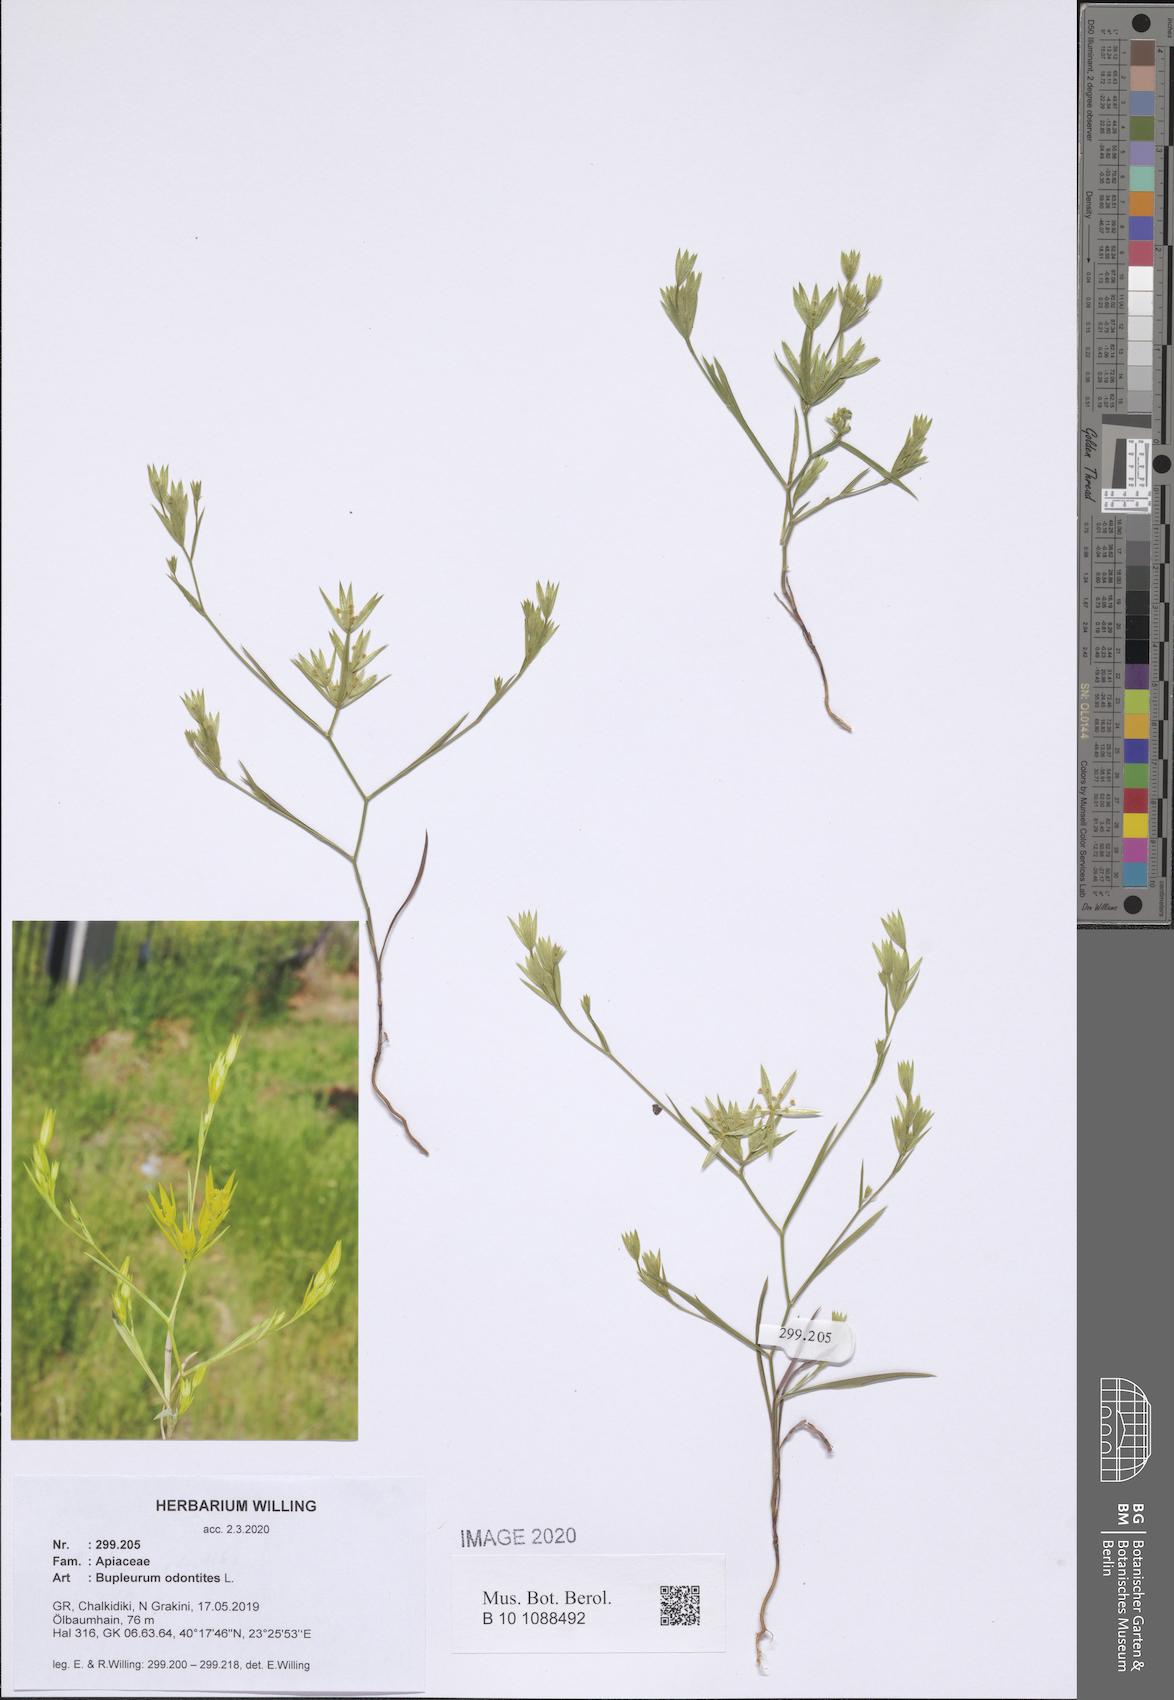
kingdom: Plantae
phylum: Tracheophyta
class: Magnoliopsida
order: Apiales
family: Apiaceae
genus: Bupleurum
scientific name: Bupleurum odontites
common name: Narrowleaf thorow wax
